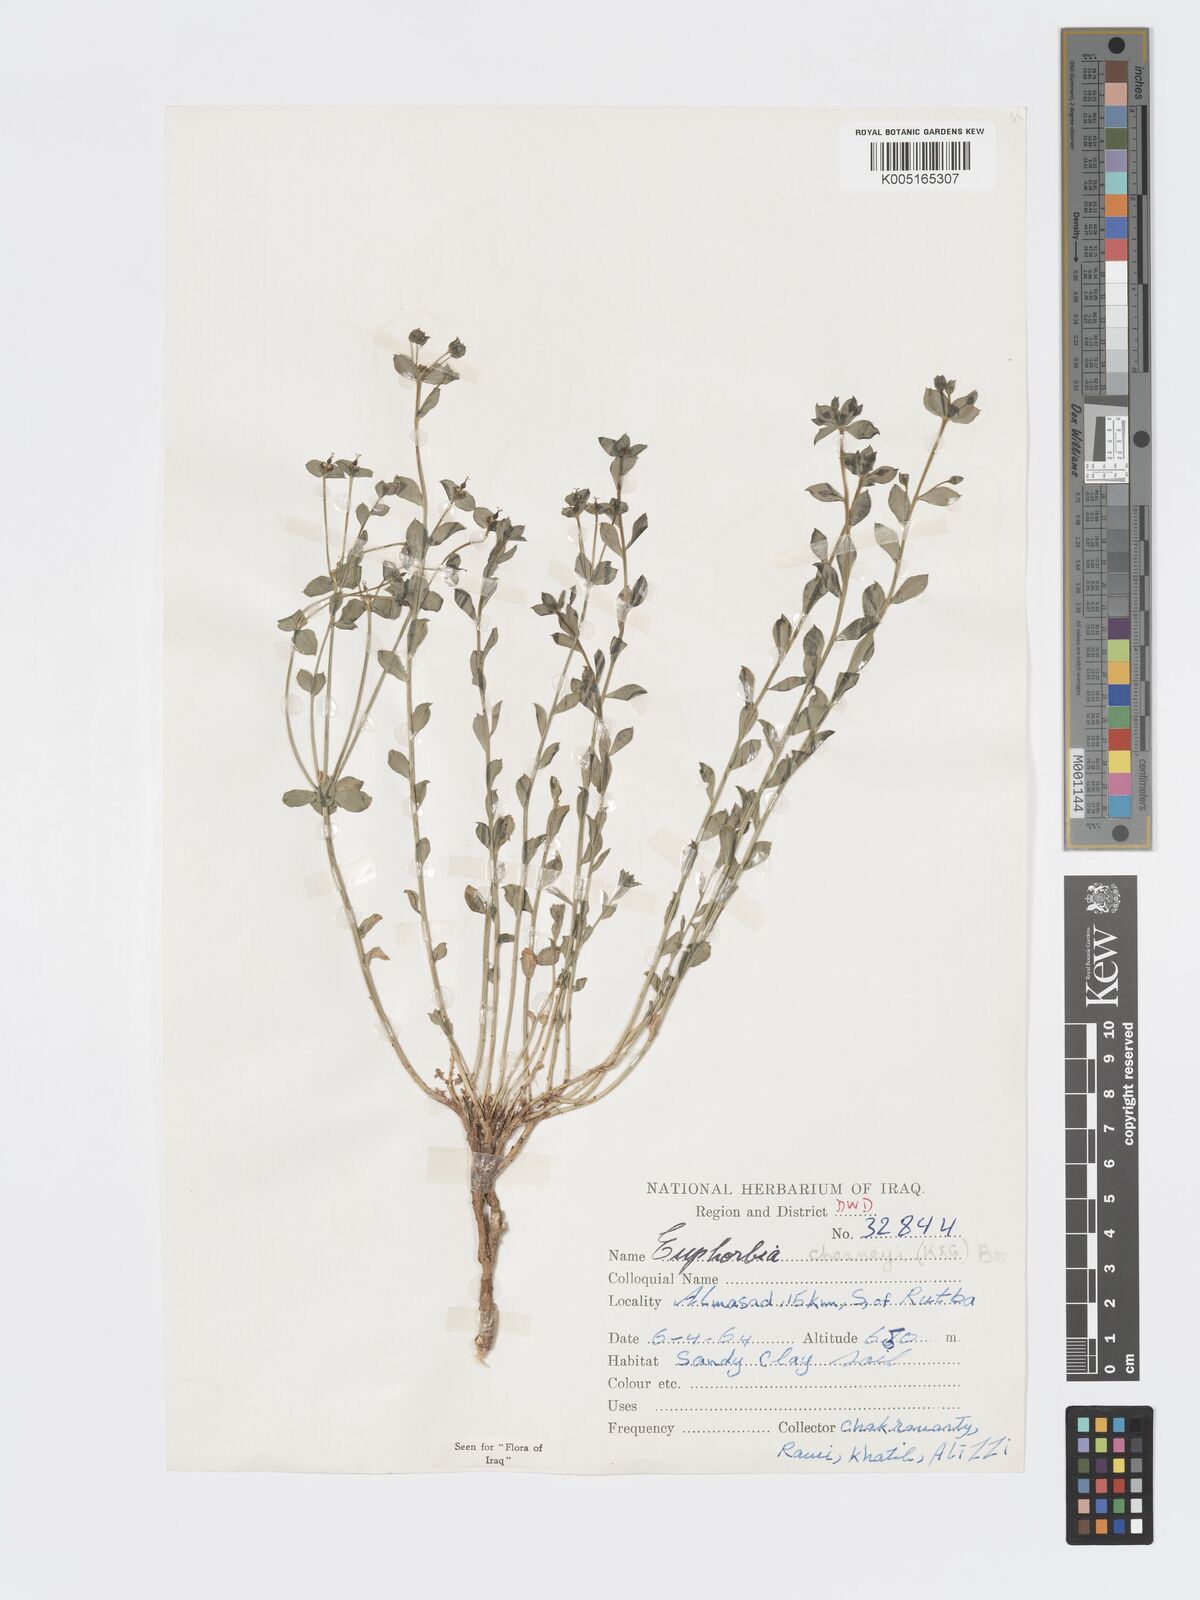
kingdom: Plantae
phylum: Tracheophyta
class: Magnoliopsida
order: Malpighiales
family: Euphorbiaceae
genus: Euphorbia
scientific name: Euphorbia cuspidata
